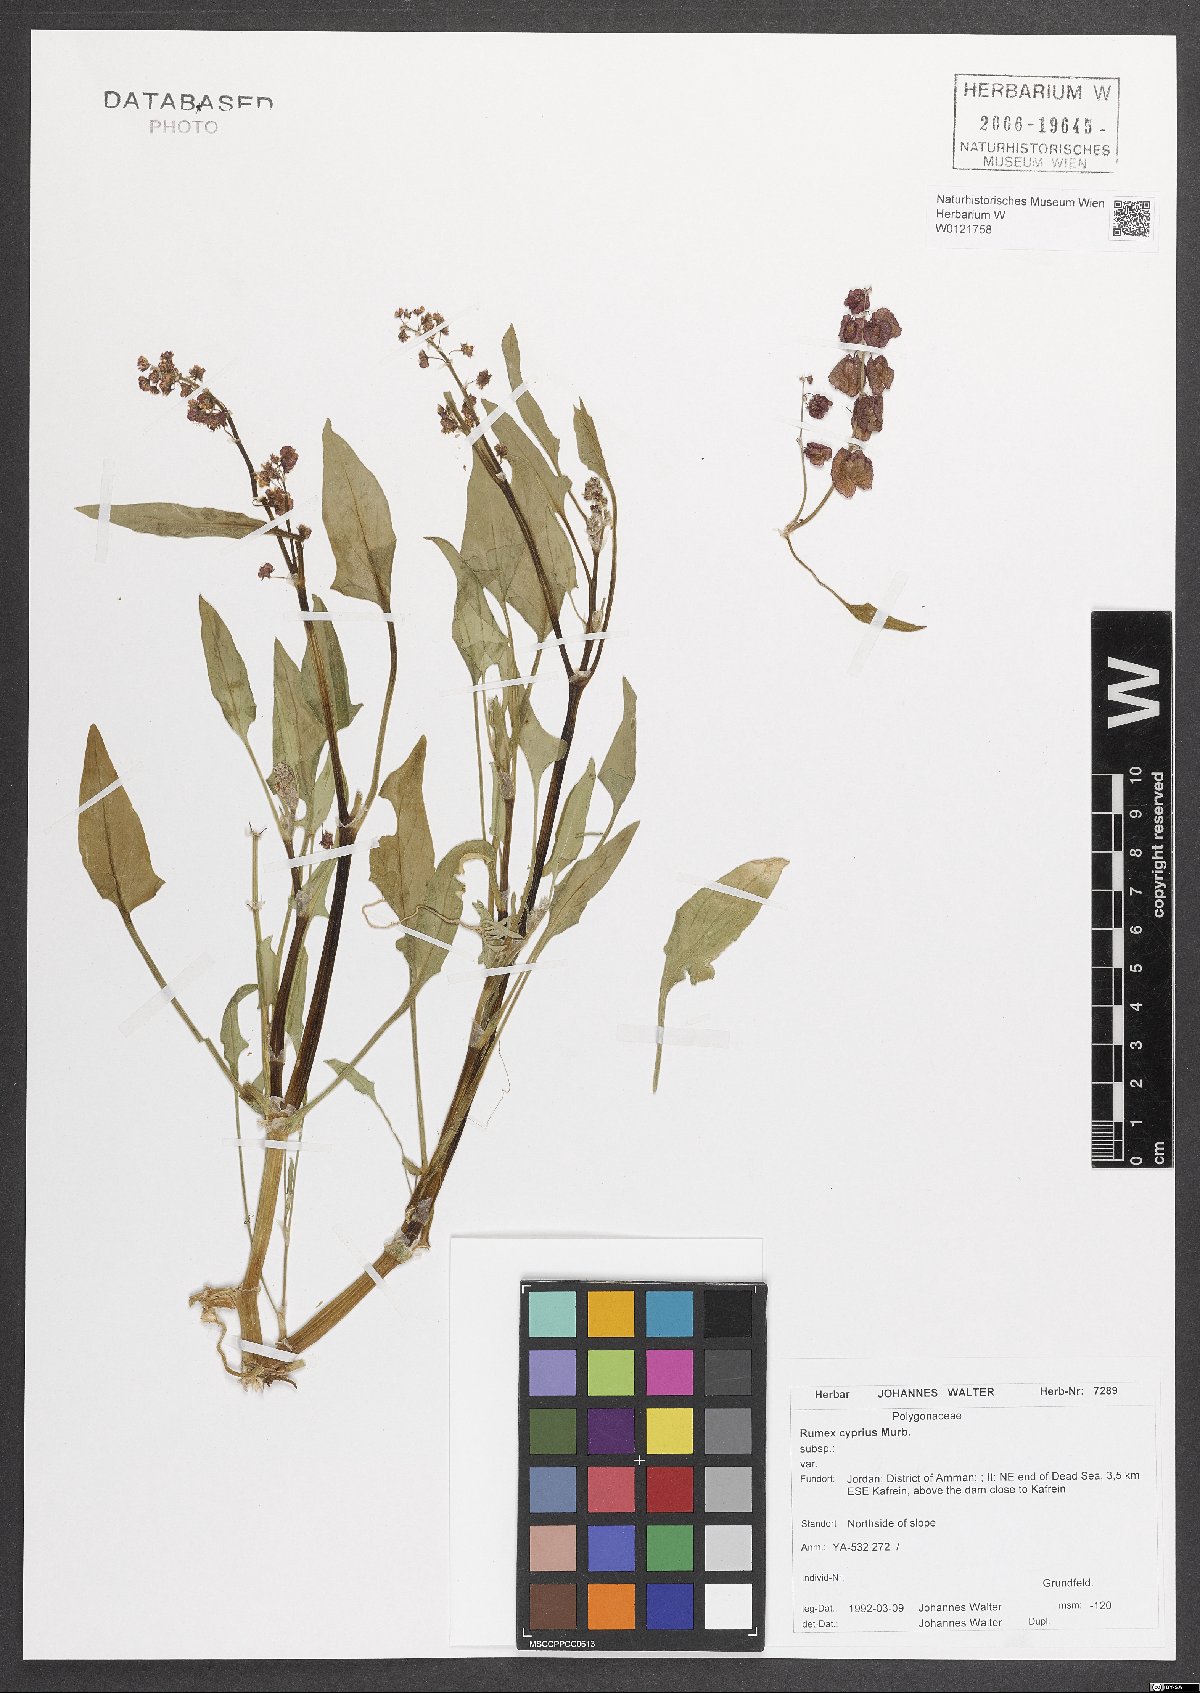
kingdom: Plantae
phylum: Tracheophyta
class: Magnoliopsida
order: Caryophyllales
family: Polygonaceae
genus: Rumex
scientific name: Rumex cyprius
